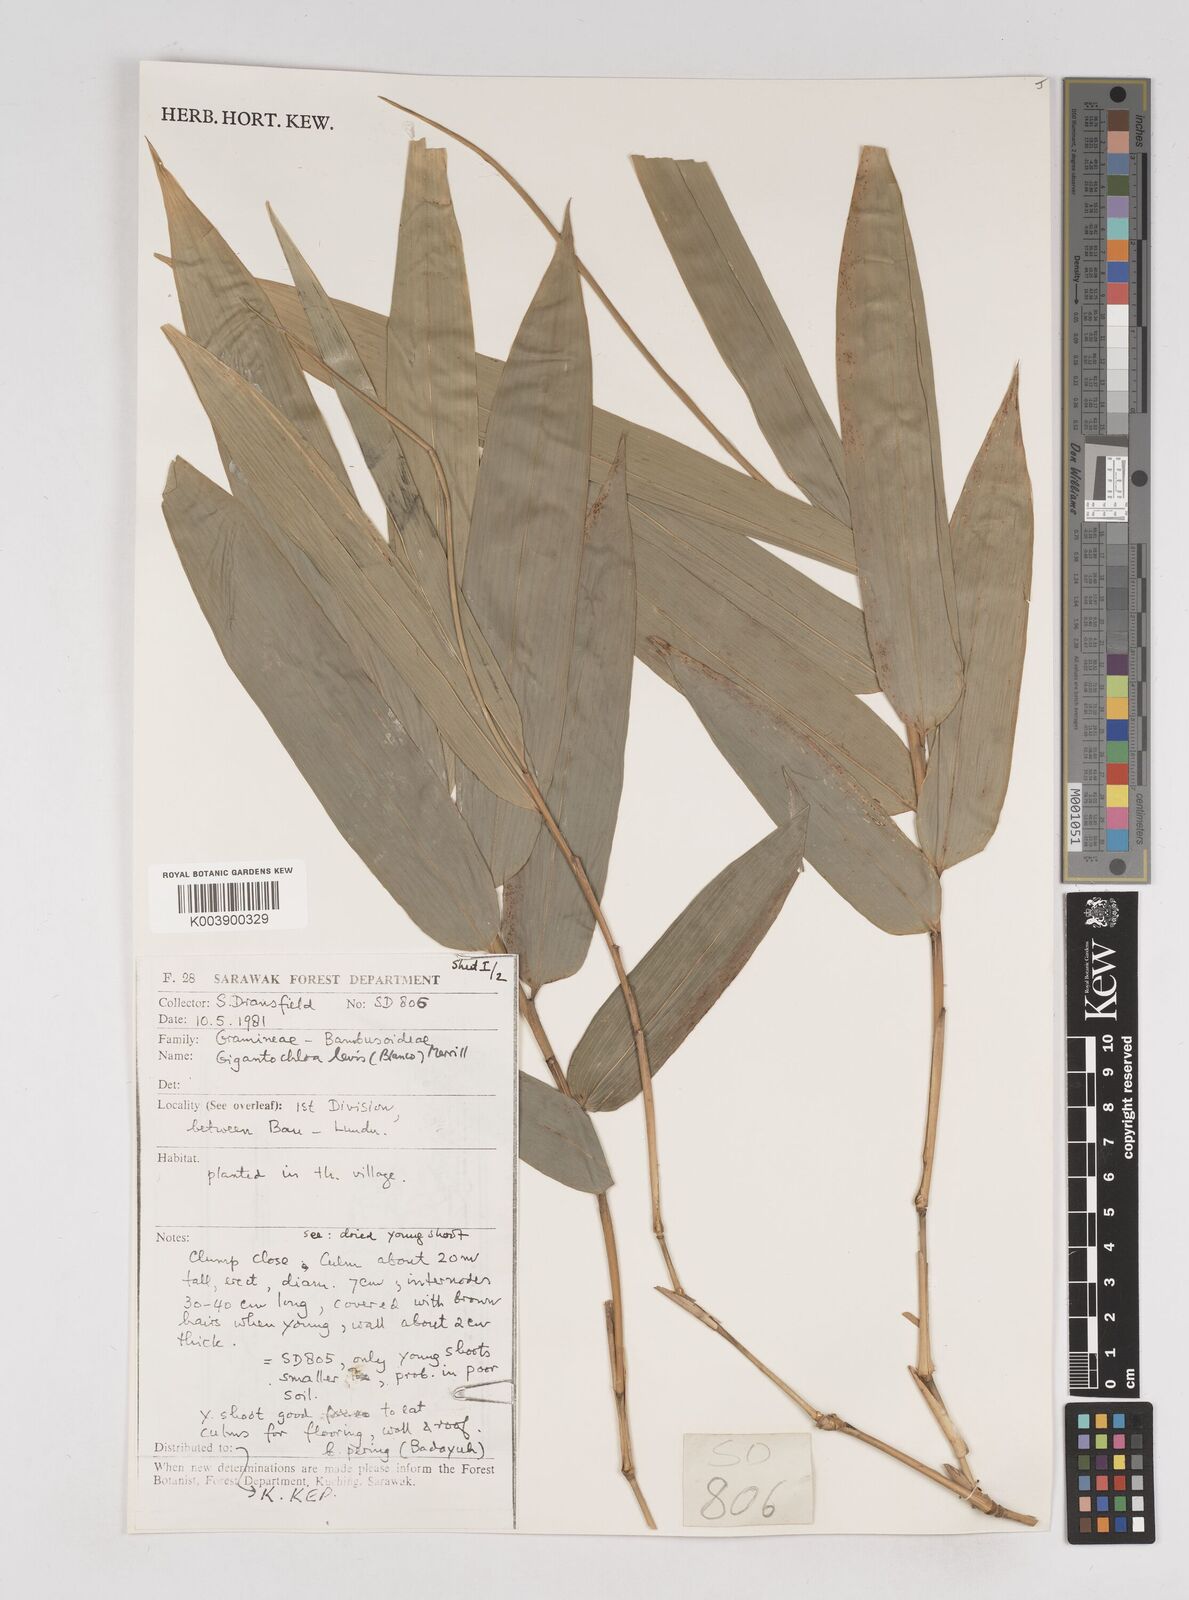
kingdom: Plantae
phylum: Tracheophyta
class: Liliopsida
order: Poales
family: Poaceae
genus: Gigantochloa
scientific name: Gigantochloa levis
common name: Smooth-shoot gigantochloa
